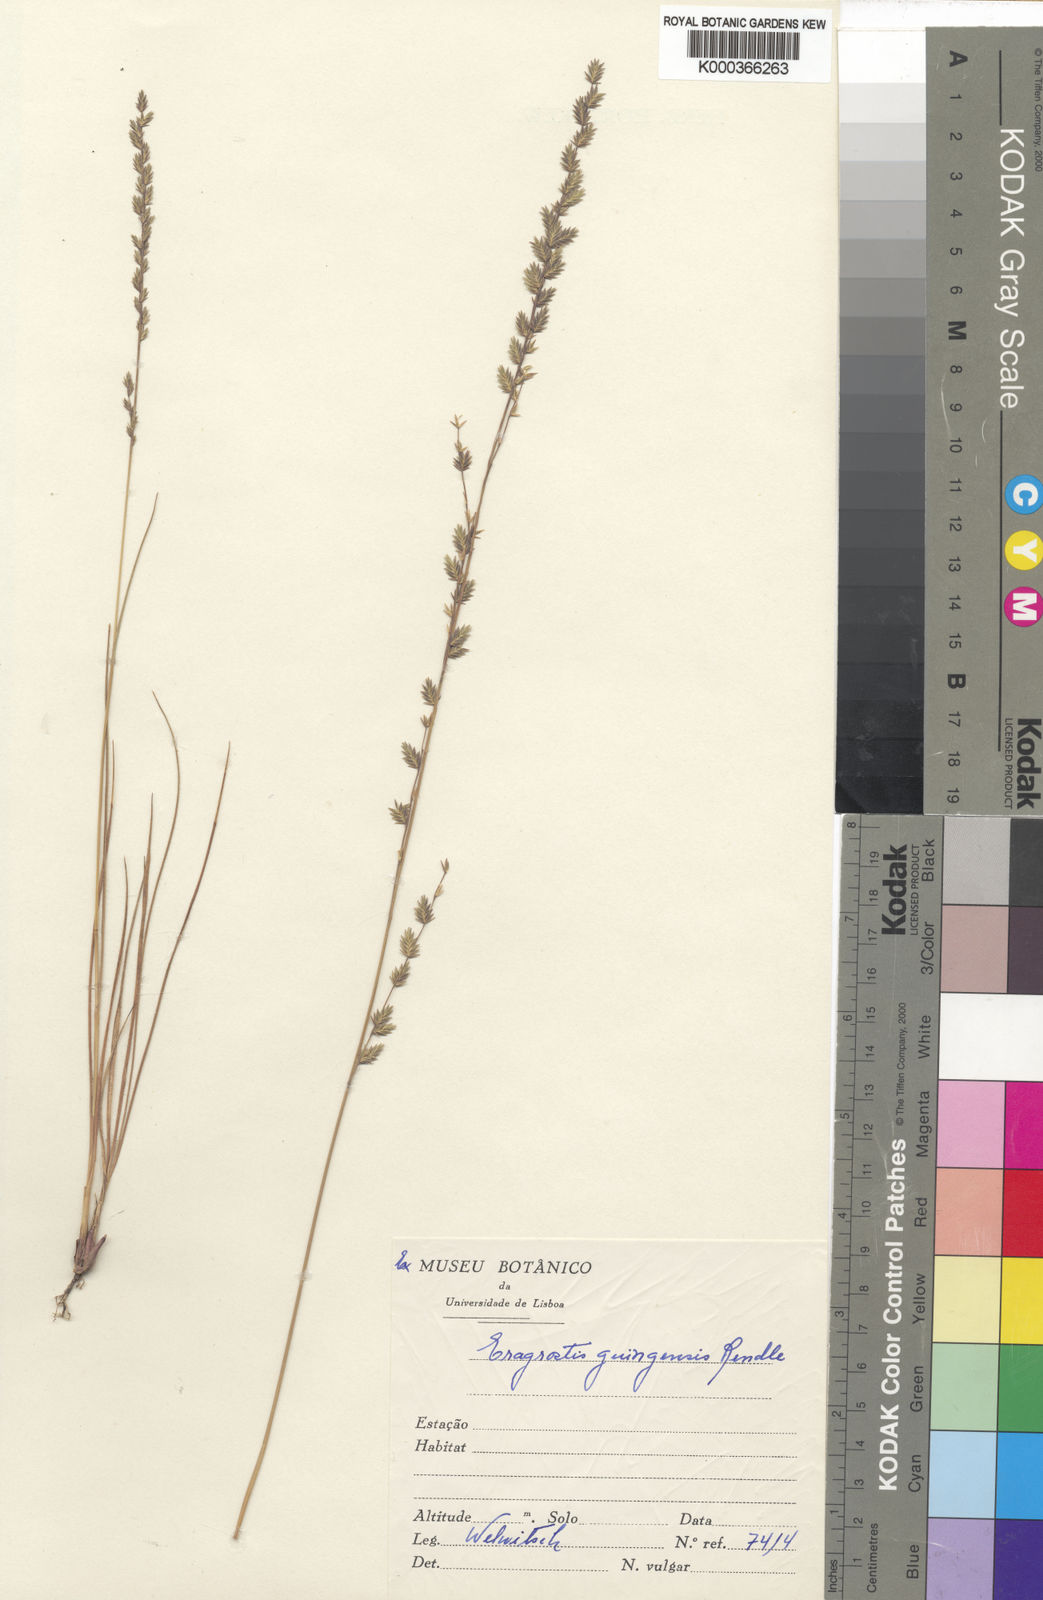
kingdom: Plantae
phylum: Tracheophyta
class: Liliopsida
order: Poales
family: Poaceae
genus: Eragrostis
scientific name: Eragrostis nindensis
